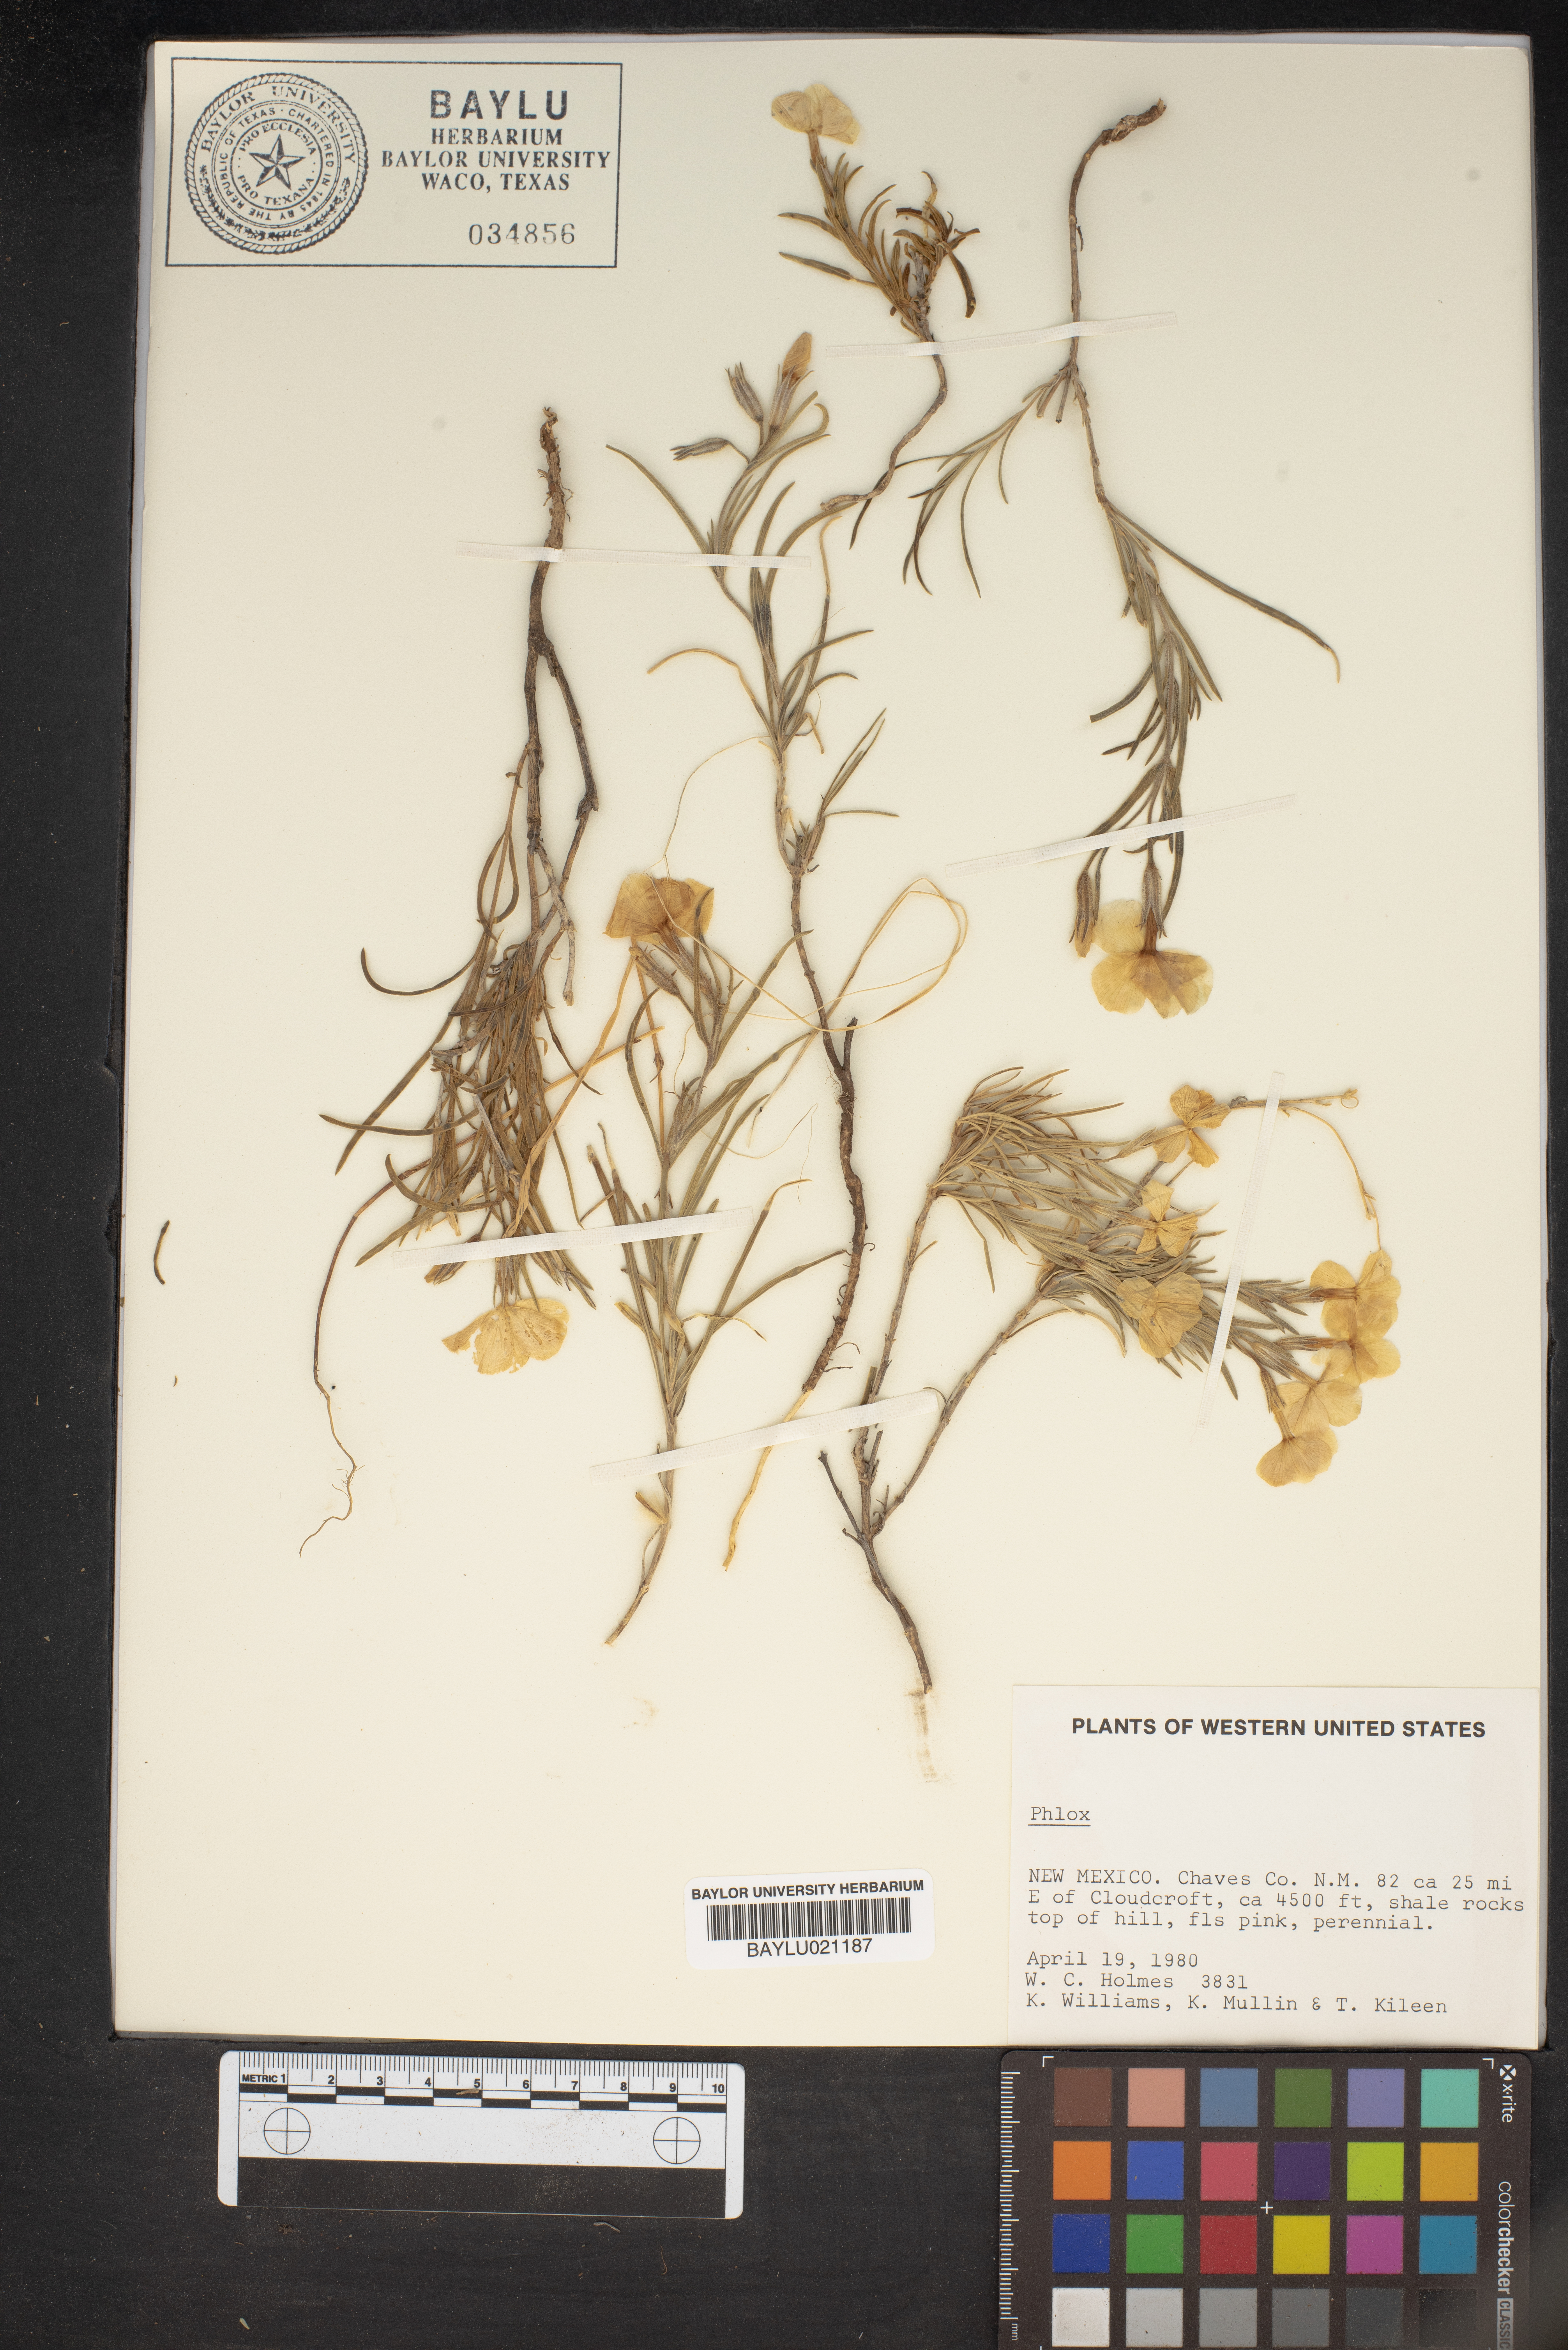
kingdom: Plantae
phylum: Tracheophyta
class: Magnoliopsida
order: Ericales
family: Polemoniaceae
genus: Phlox
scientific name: Phlox
